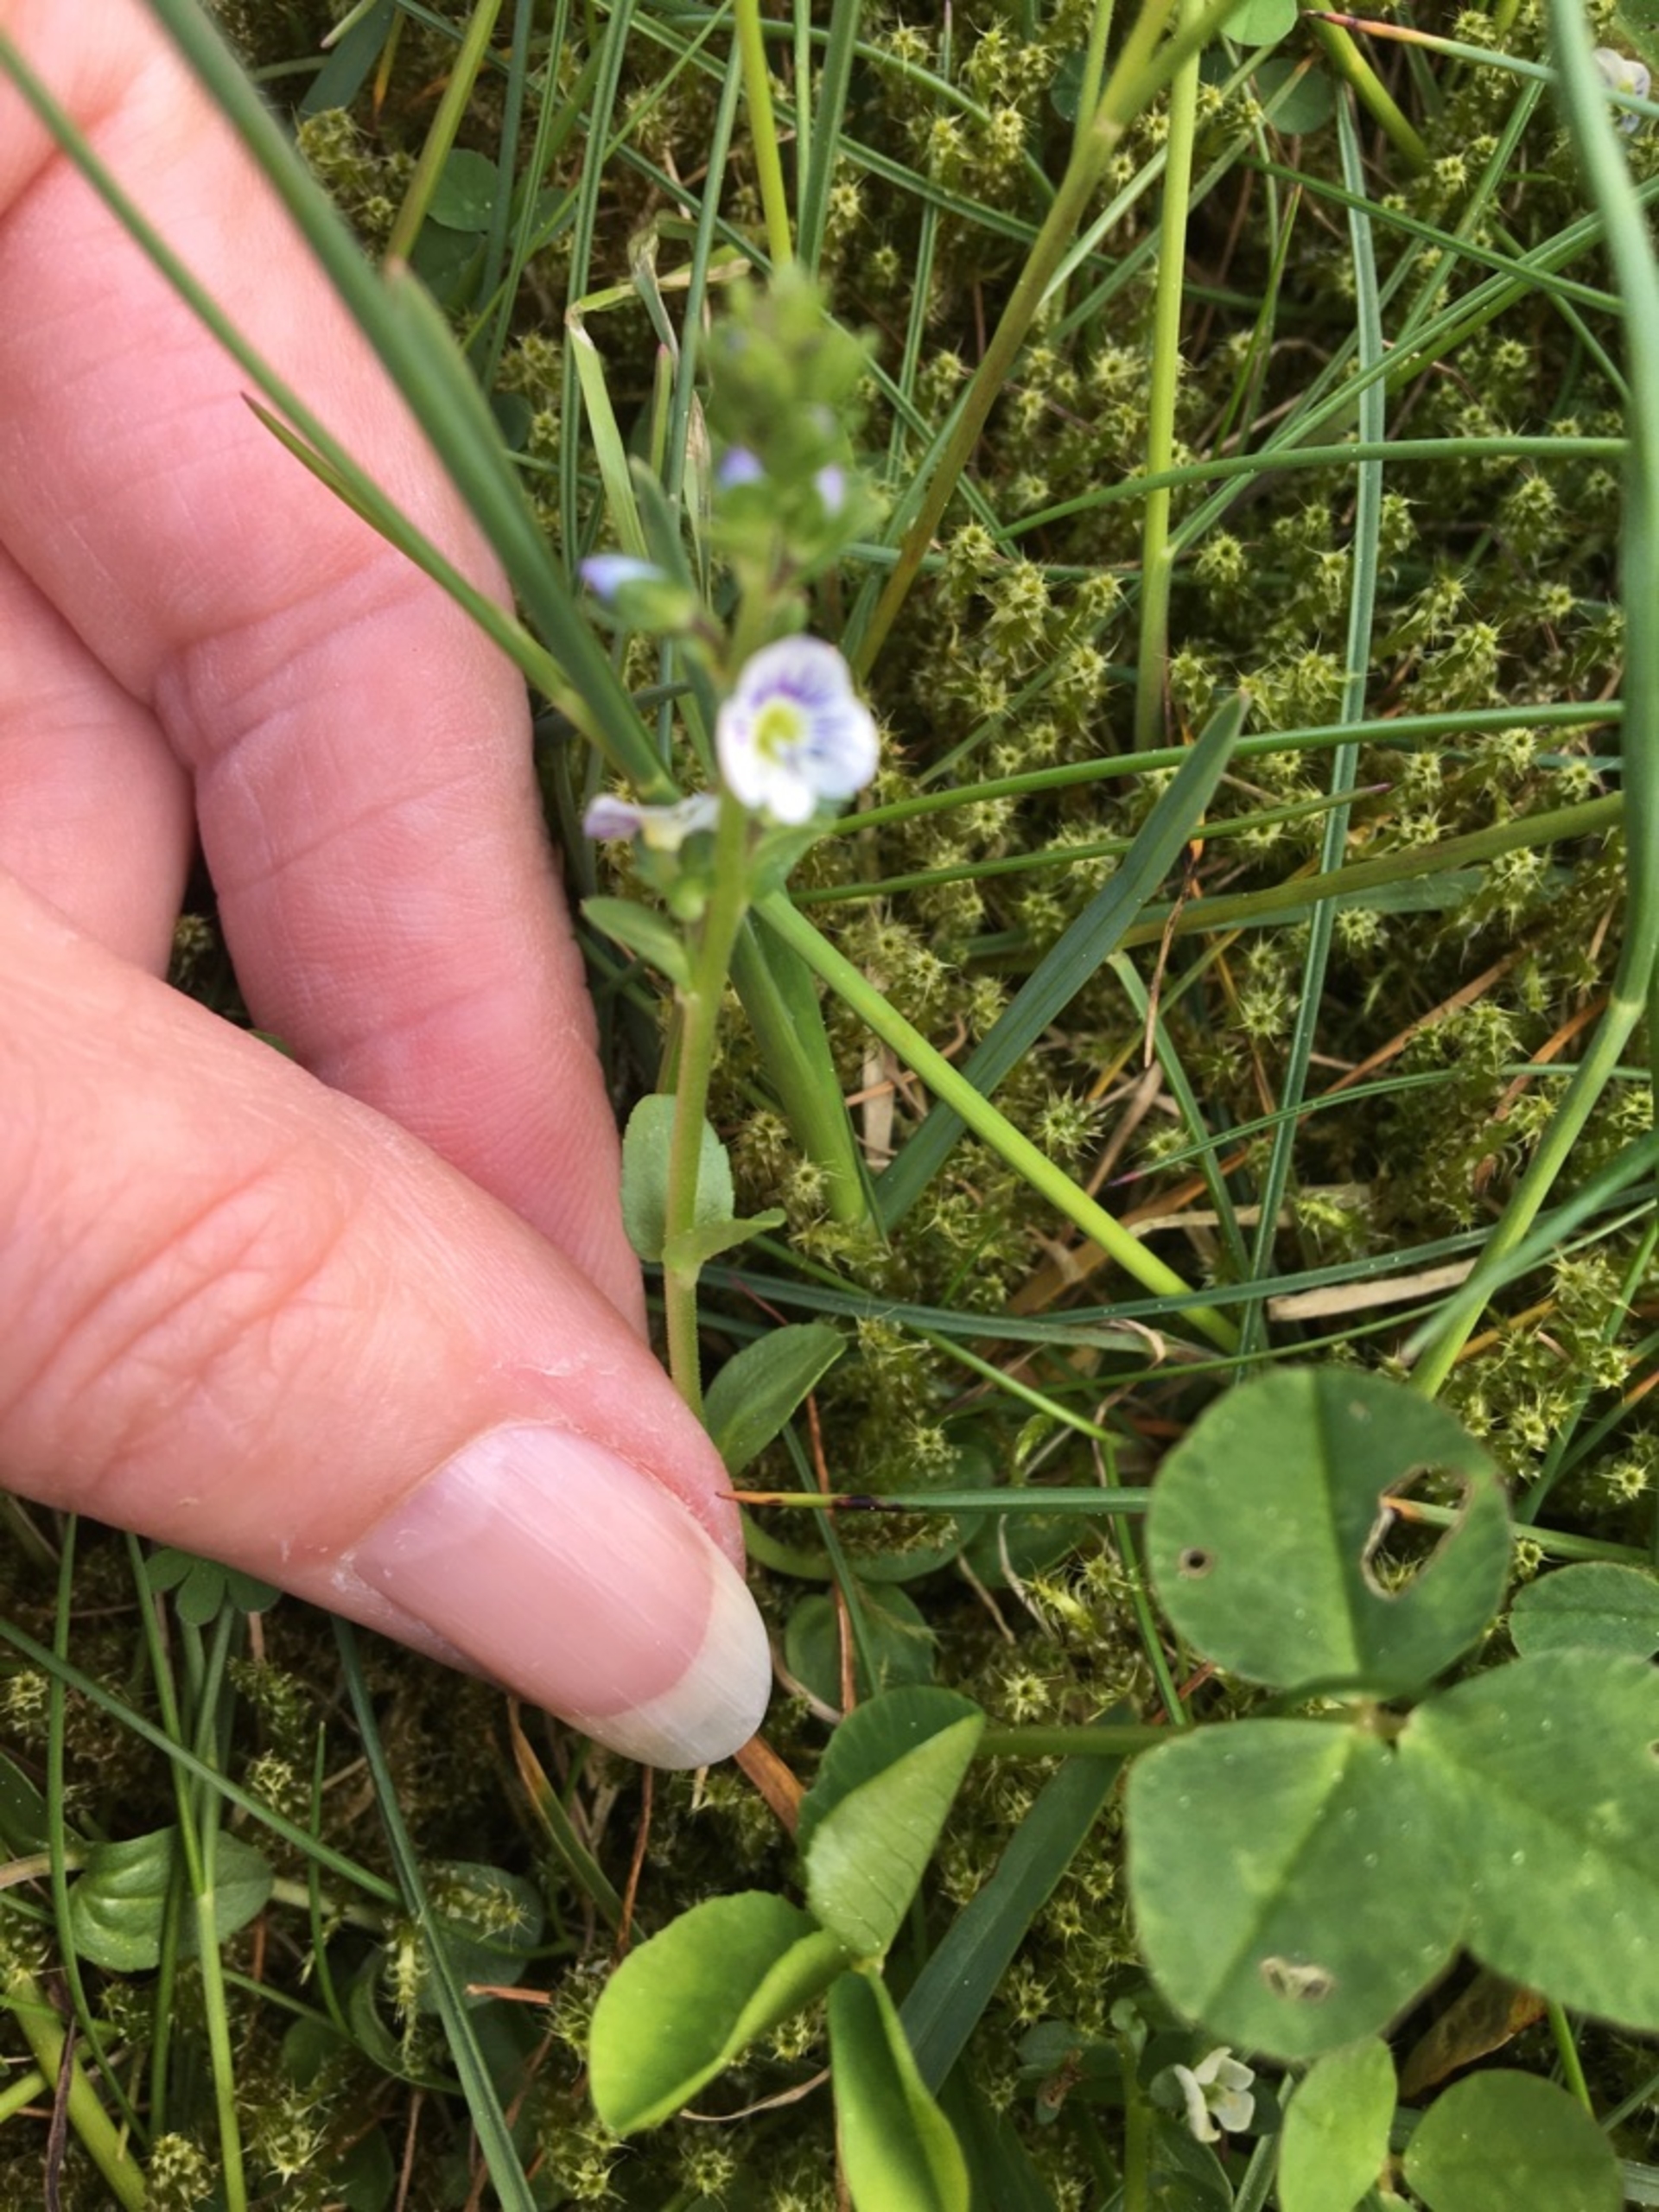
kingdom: Plantae
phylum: Tracheophyta
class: Magnoliopsida
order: Lamiales
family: Plantaginaceae
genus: Veronica
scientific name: Veronica serpyllifolia
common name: Glat ærenpris
